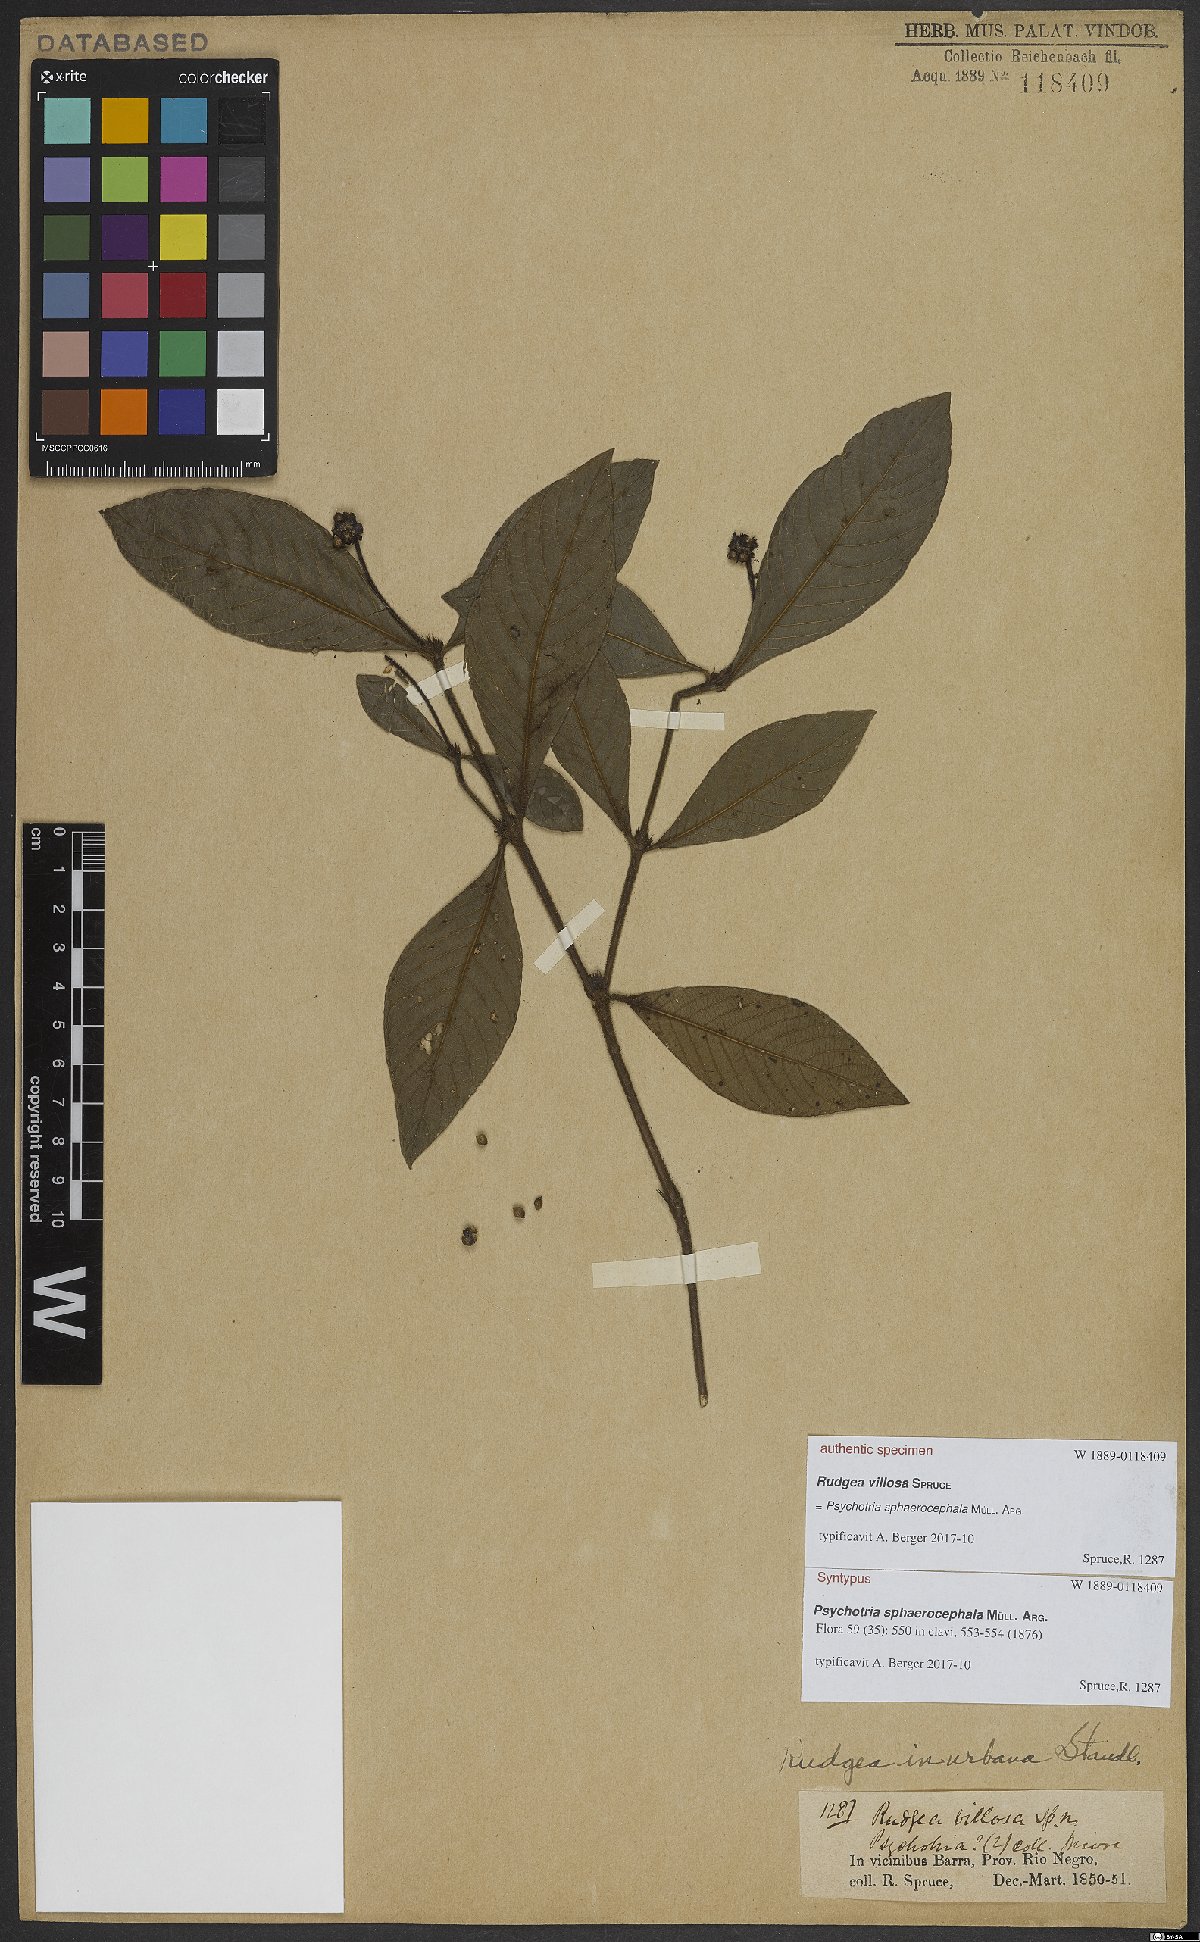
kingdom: Plantae
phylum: Tracheophyta
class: Magnoliopsida
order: Gentianales
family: Rubiaceae
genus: Palicourea
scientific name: Palicourea sphaerocephala
